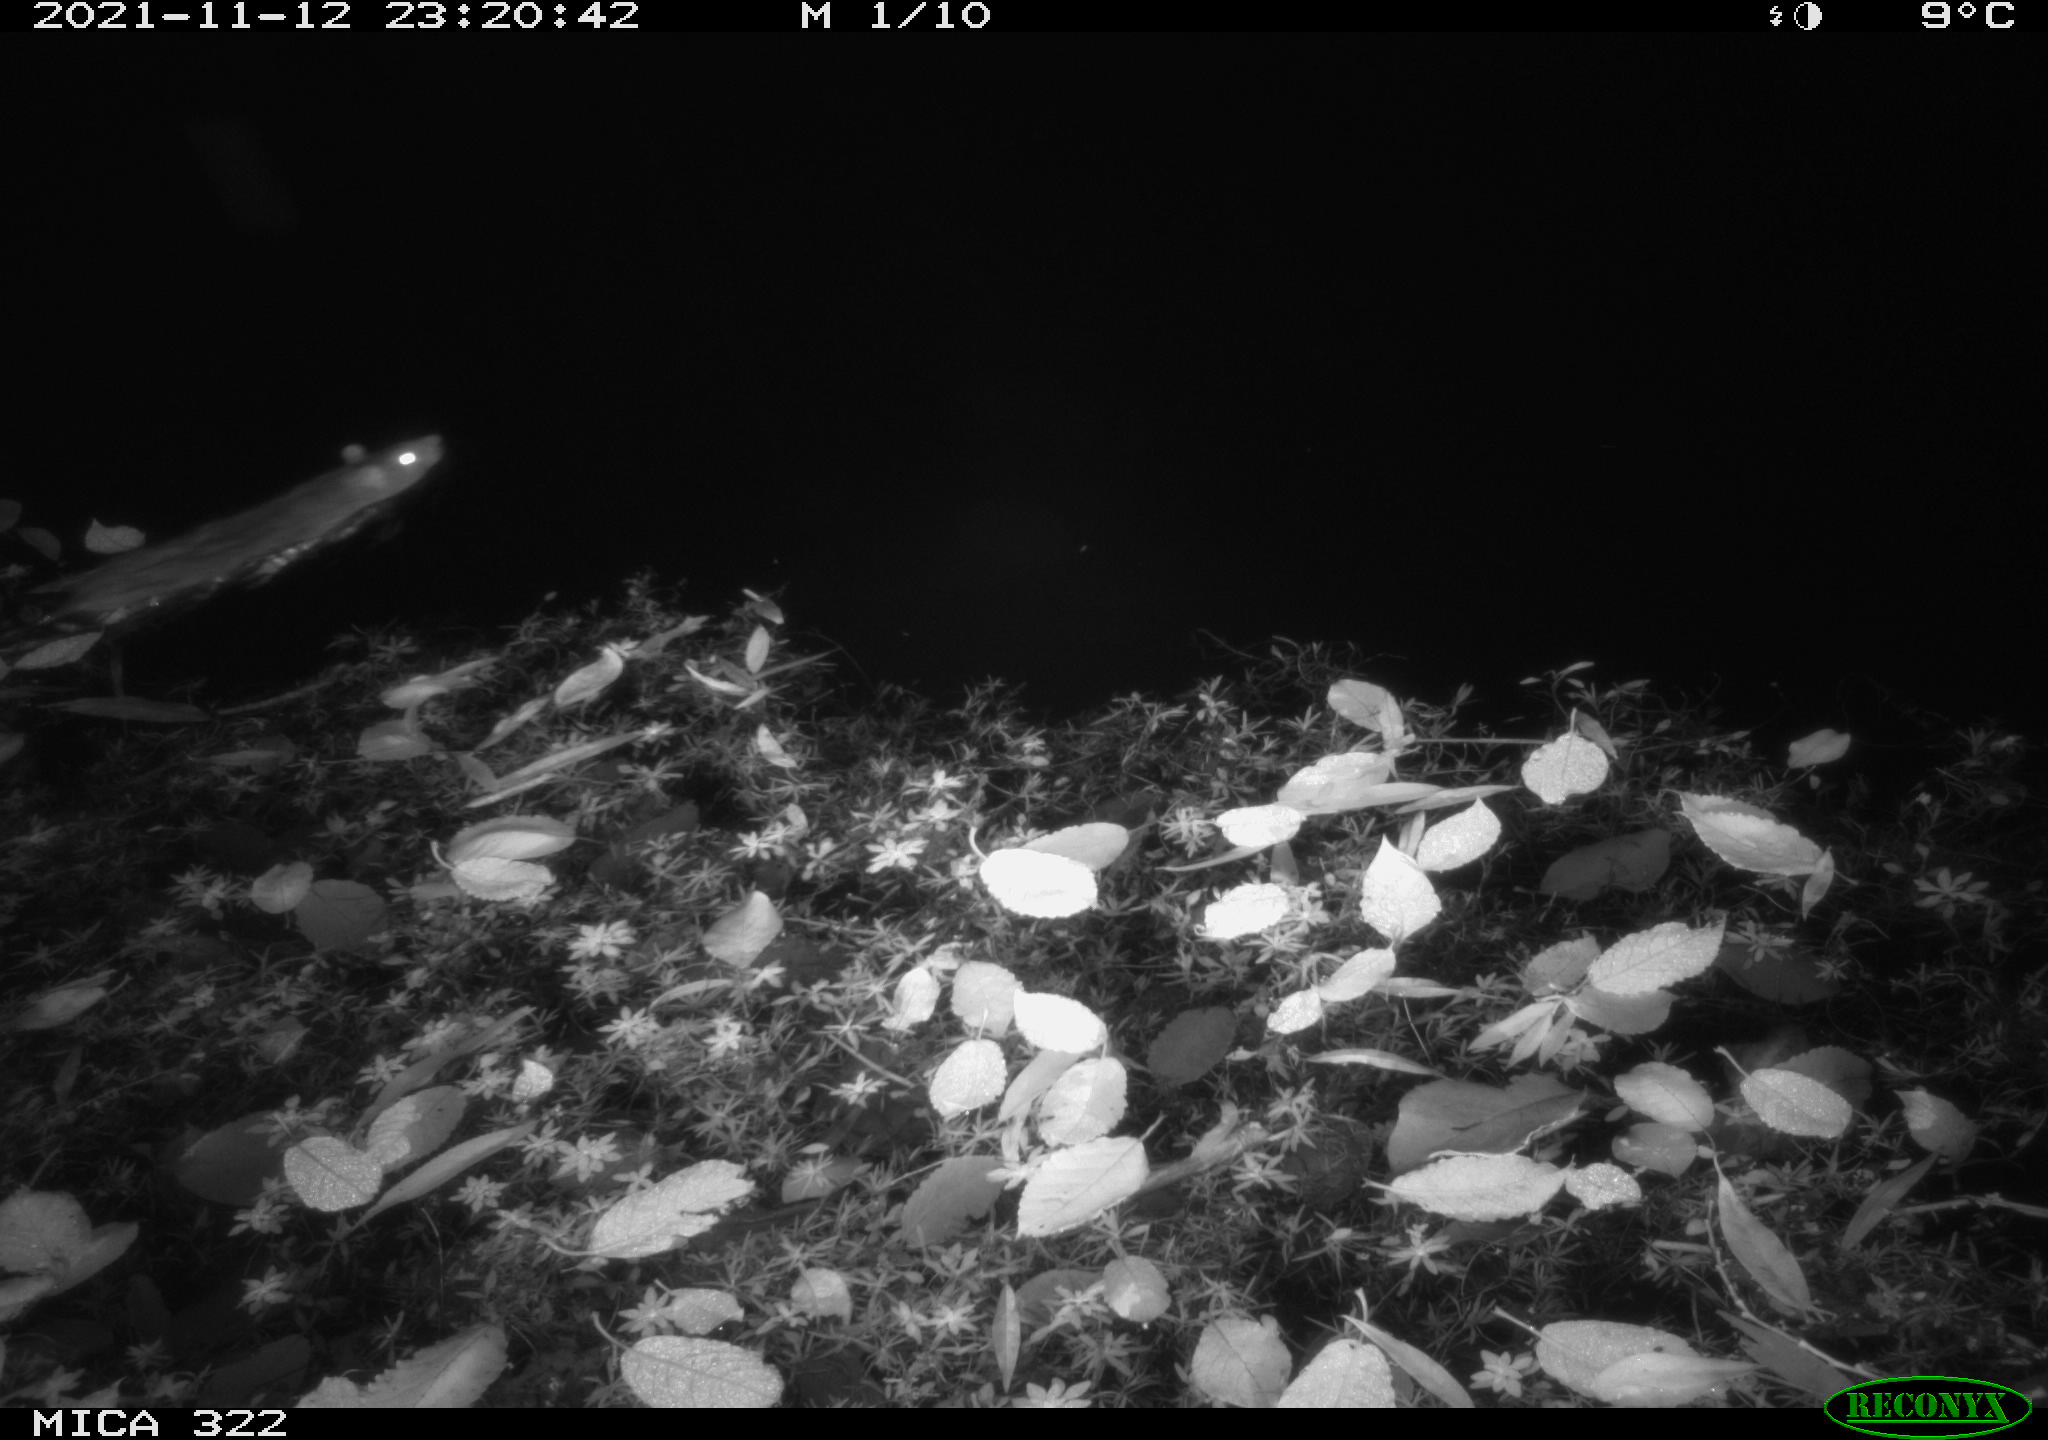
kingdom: Animalia
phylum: Chordata
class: Mammalia
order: Rodentia
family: Muridae
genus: Rattus
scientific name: Rattus norvegicus
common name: Brown rat
